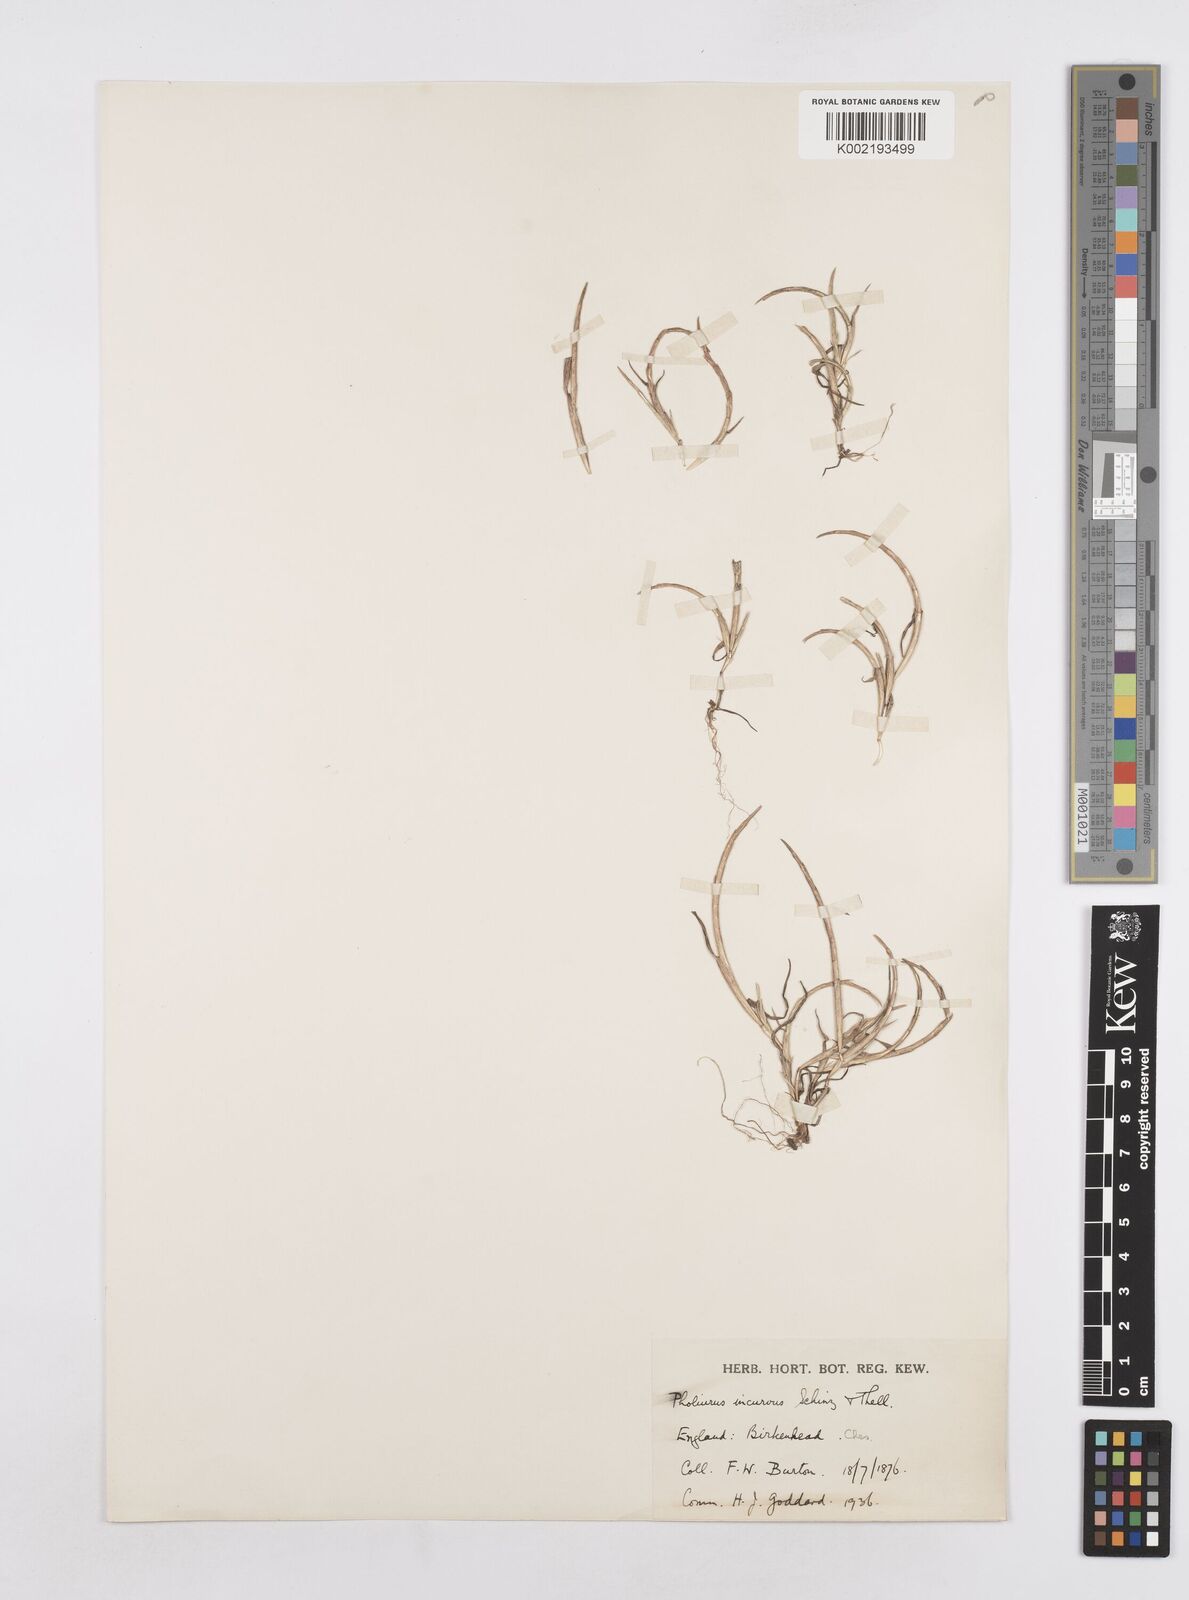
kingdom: Plantae
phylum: Tracheophyta
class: Liliopsida
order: Poales
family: Poaceae
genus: Parapholis
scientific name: Parapholis incurva
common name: Curved sicklegrass
